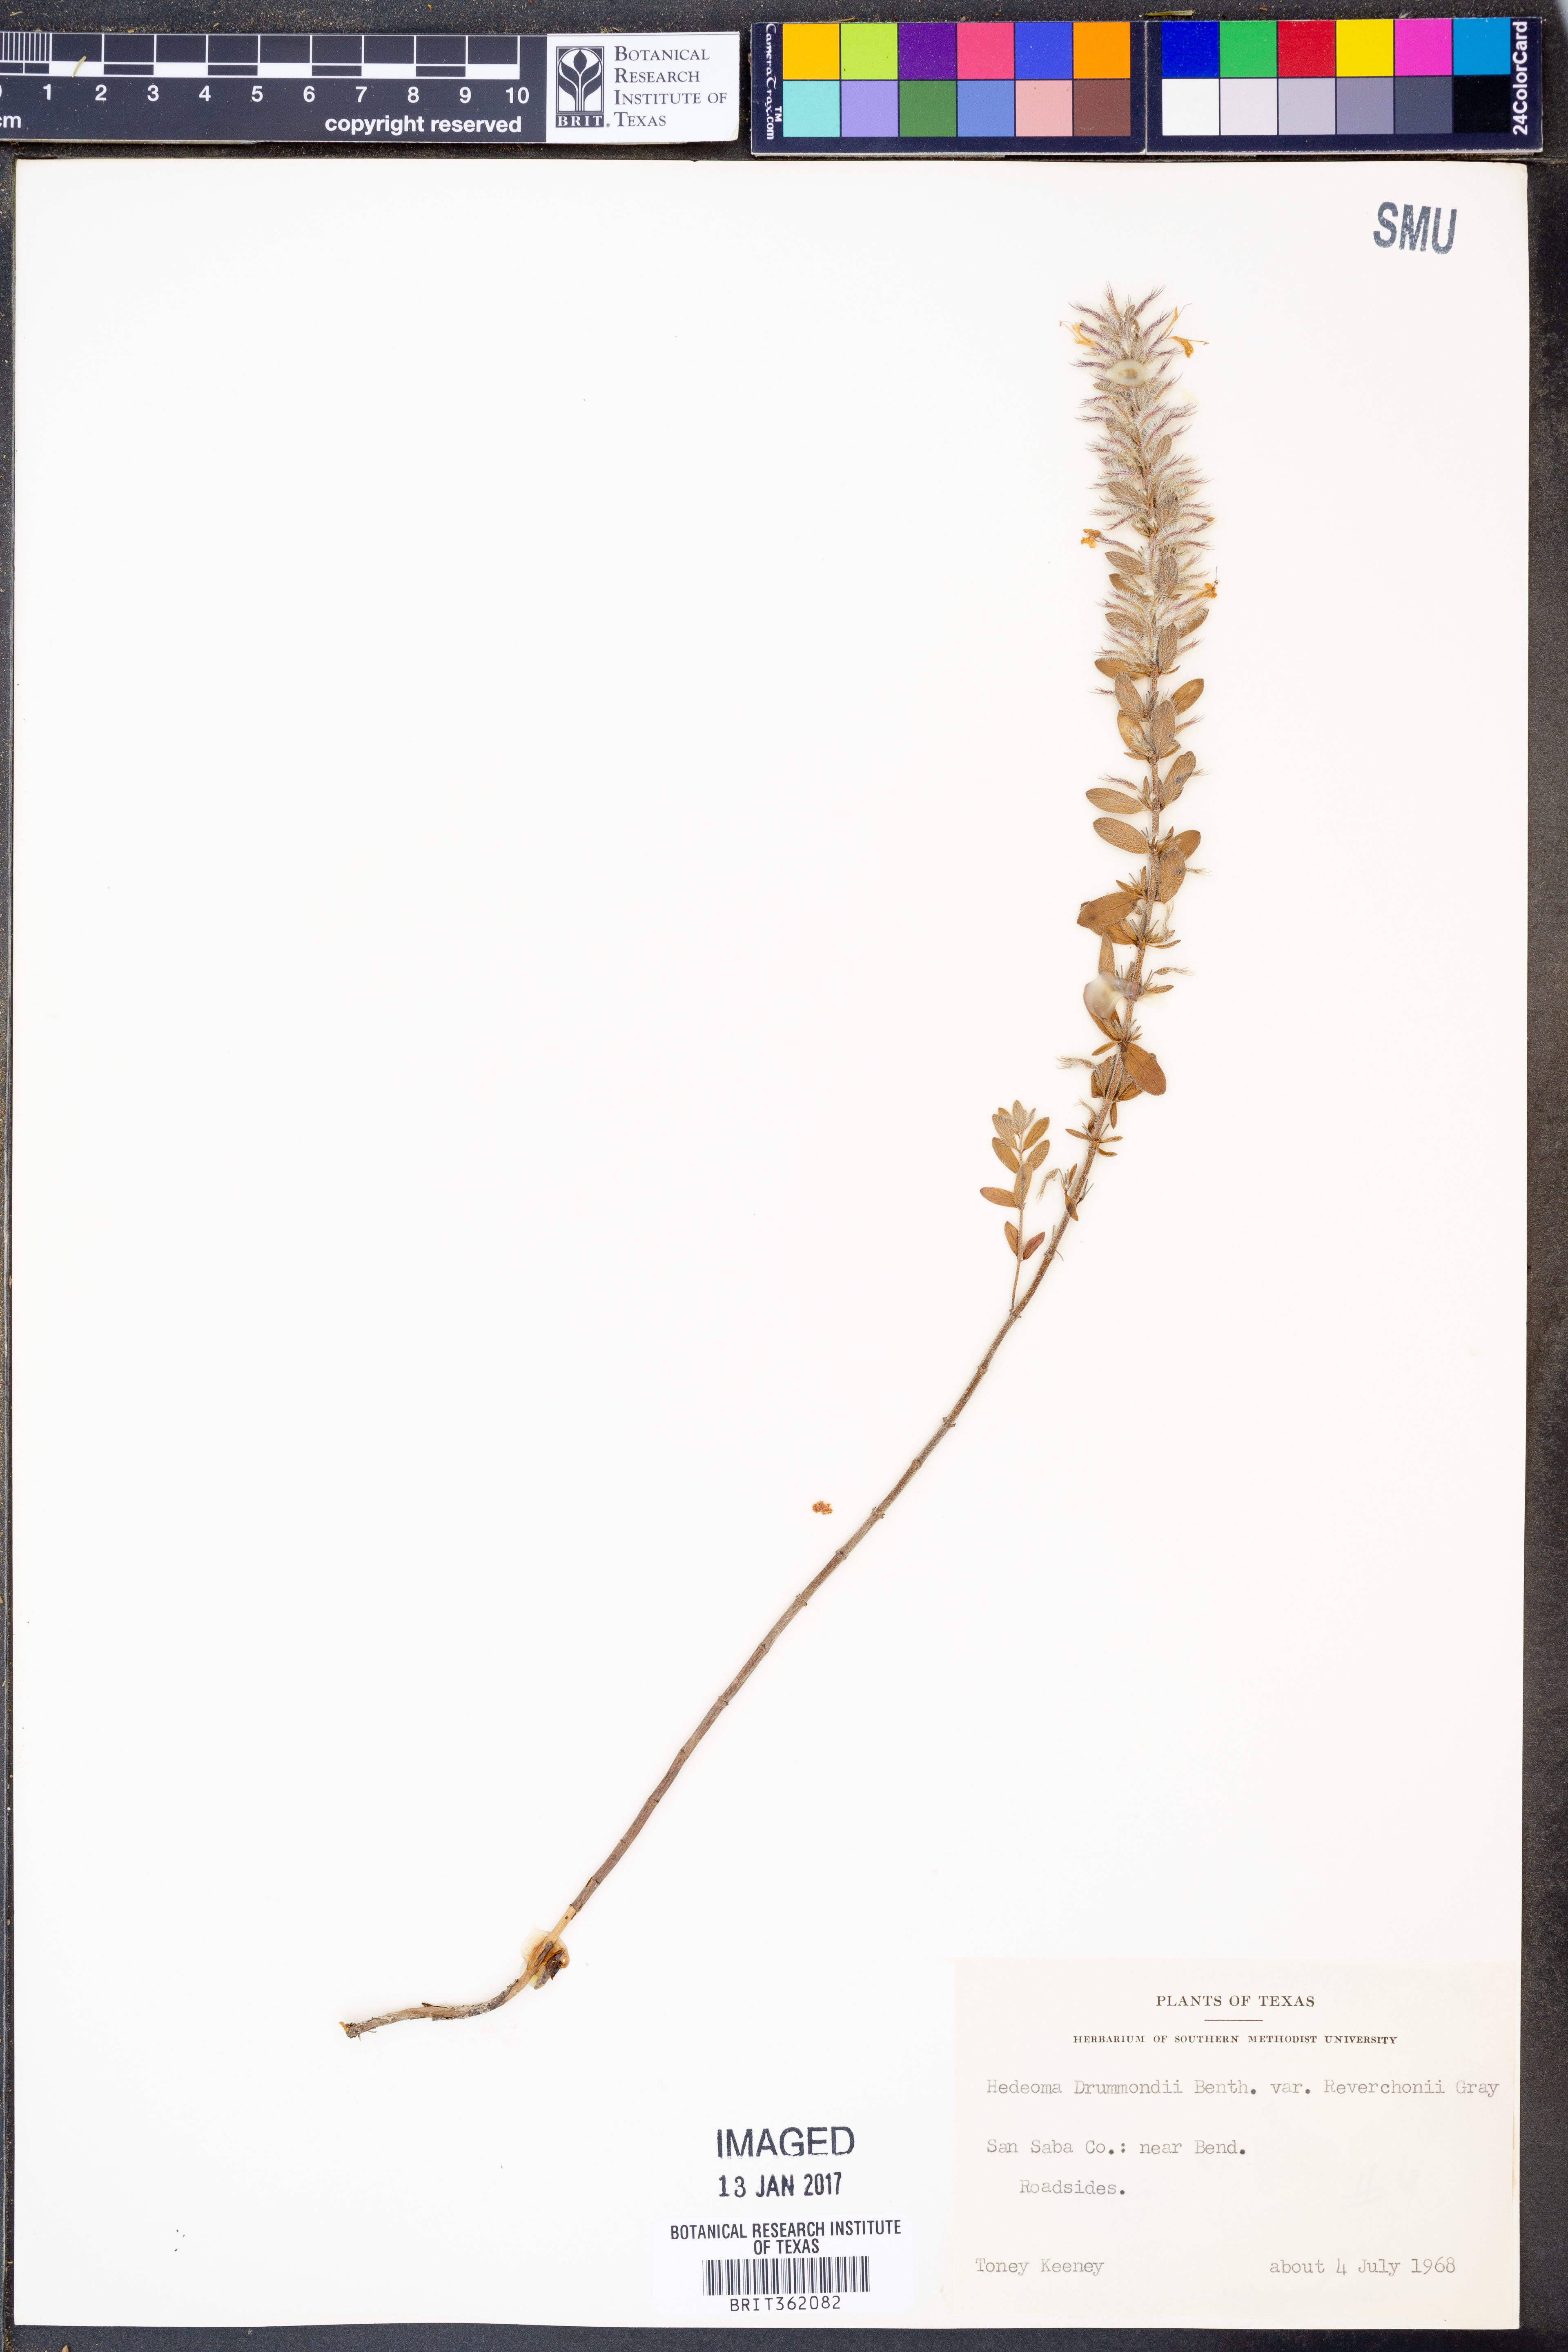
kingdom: Plantae
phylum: Tracheophyta
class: Magnoliopsida
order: Lamiales
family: Lamiaceae
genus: Hedeoma
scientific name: Hedeoma reverchonii
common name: Reverchon's false penny-royal
